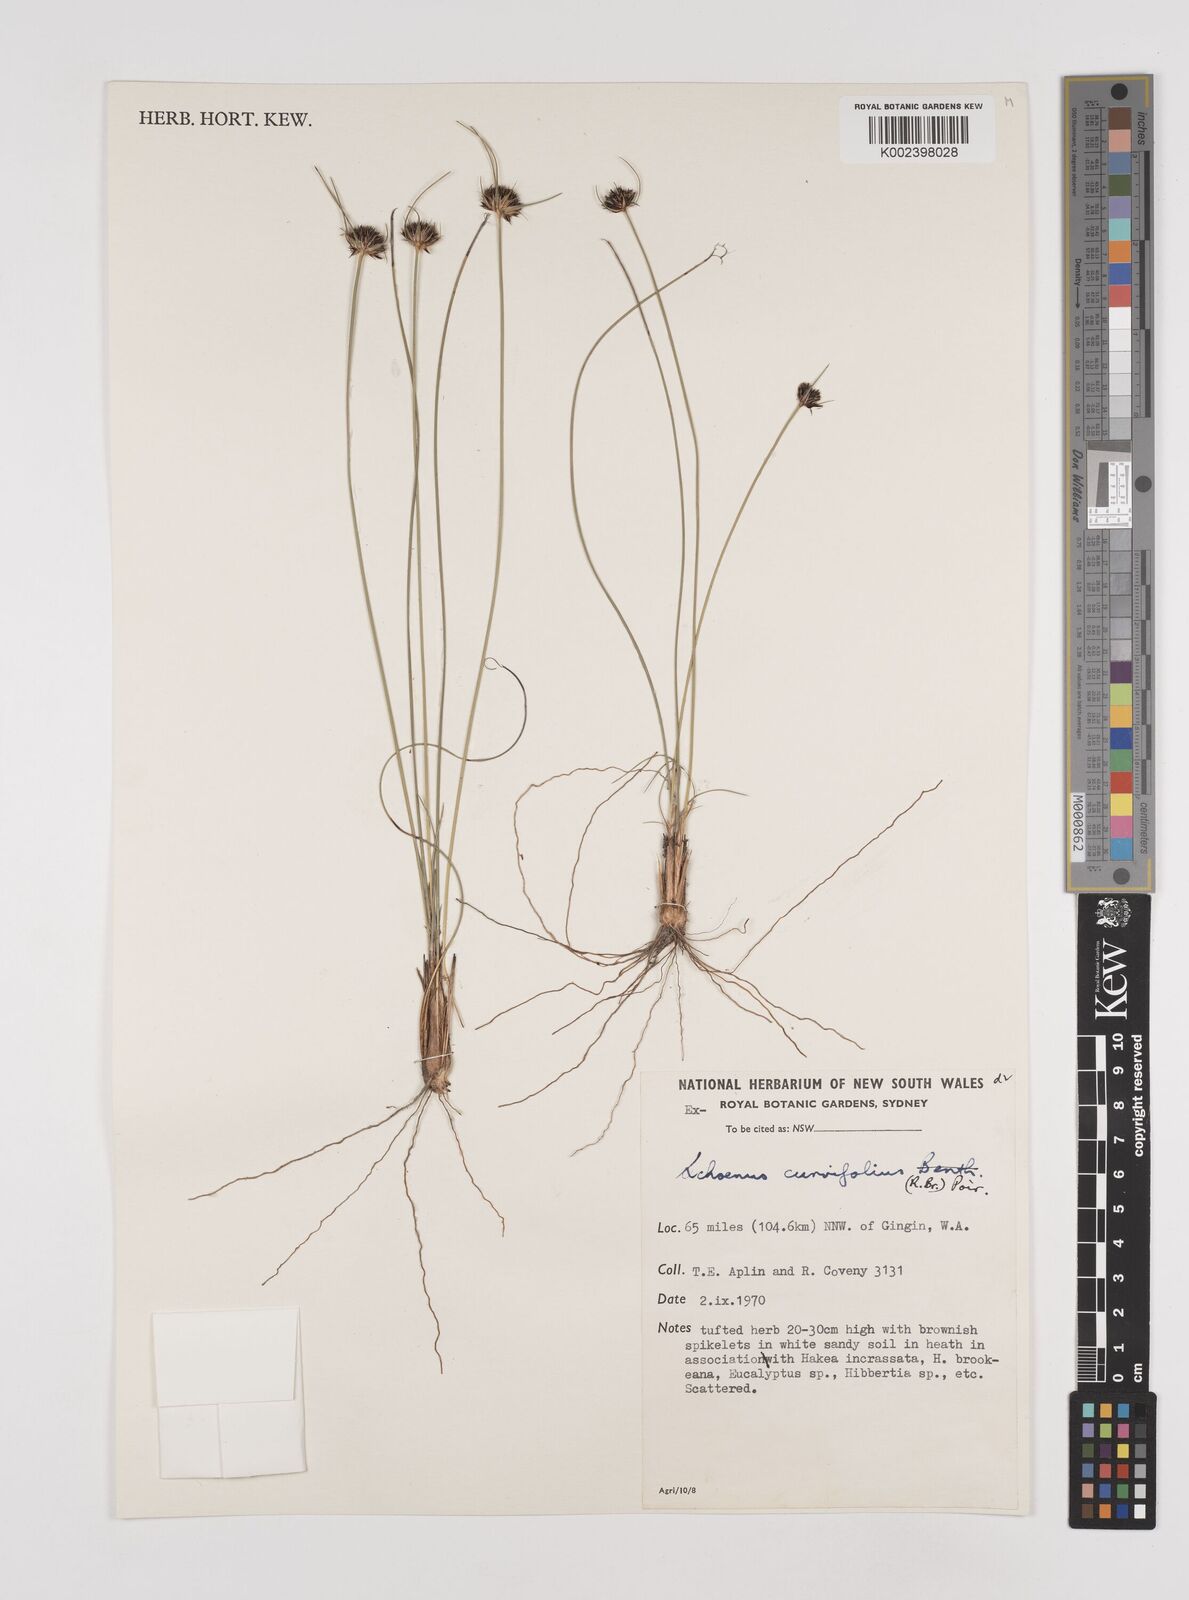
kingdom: Plantae
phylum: Tracheophyta
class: Liliopsida
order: Poales
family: Cyperaceae
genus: Schoenus
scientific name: Schoenus
